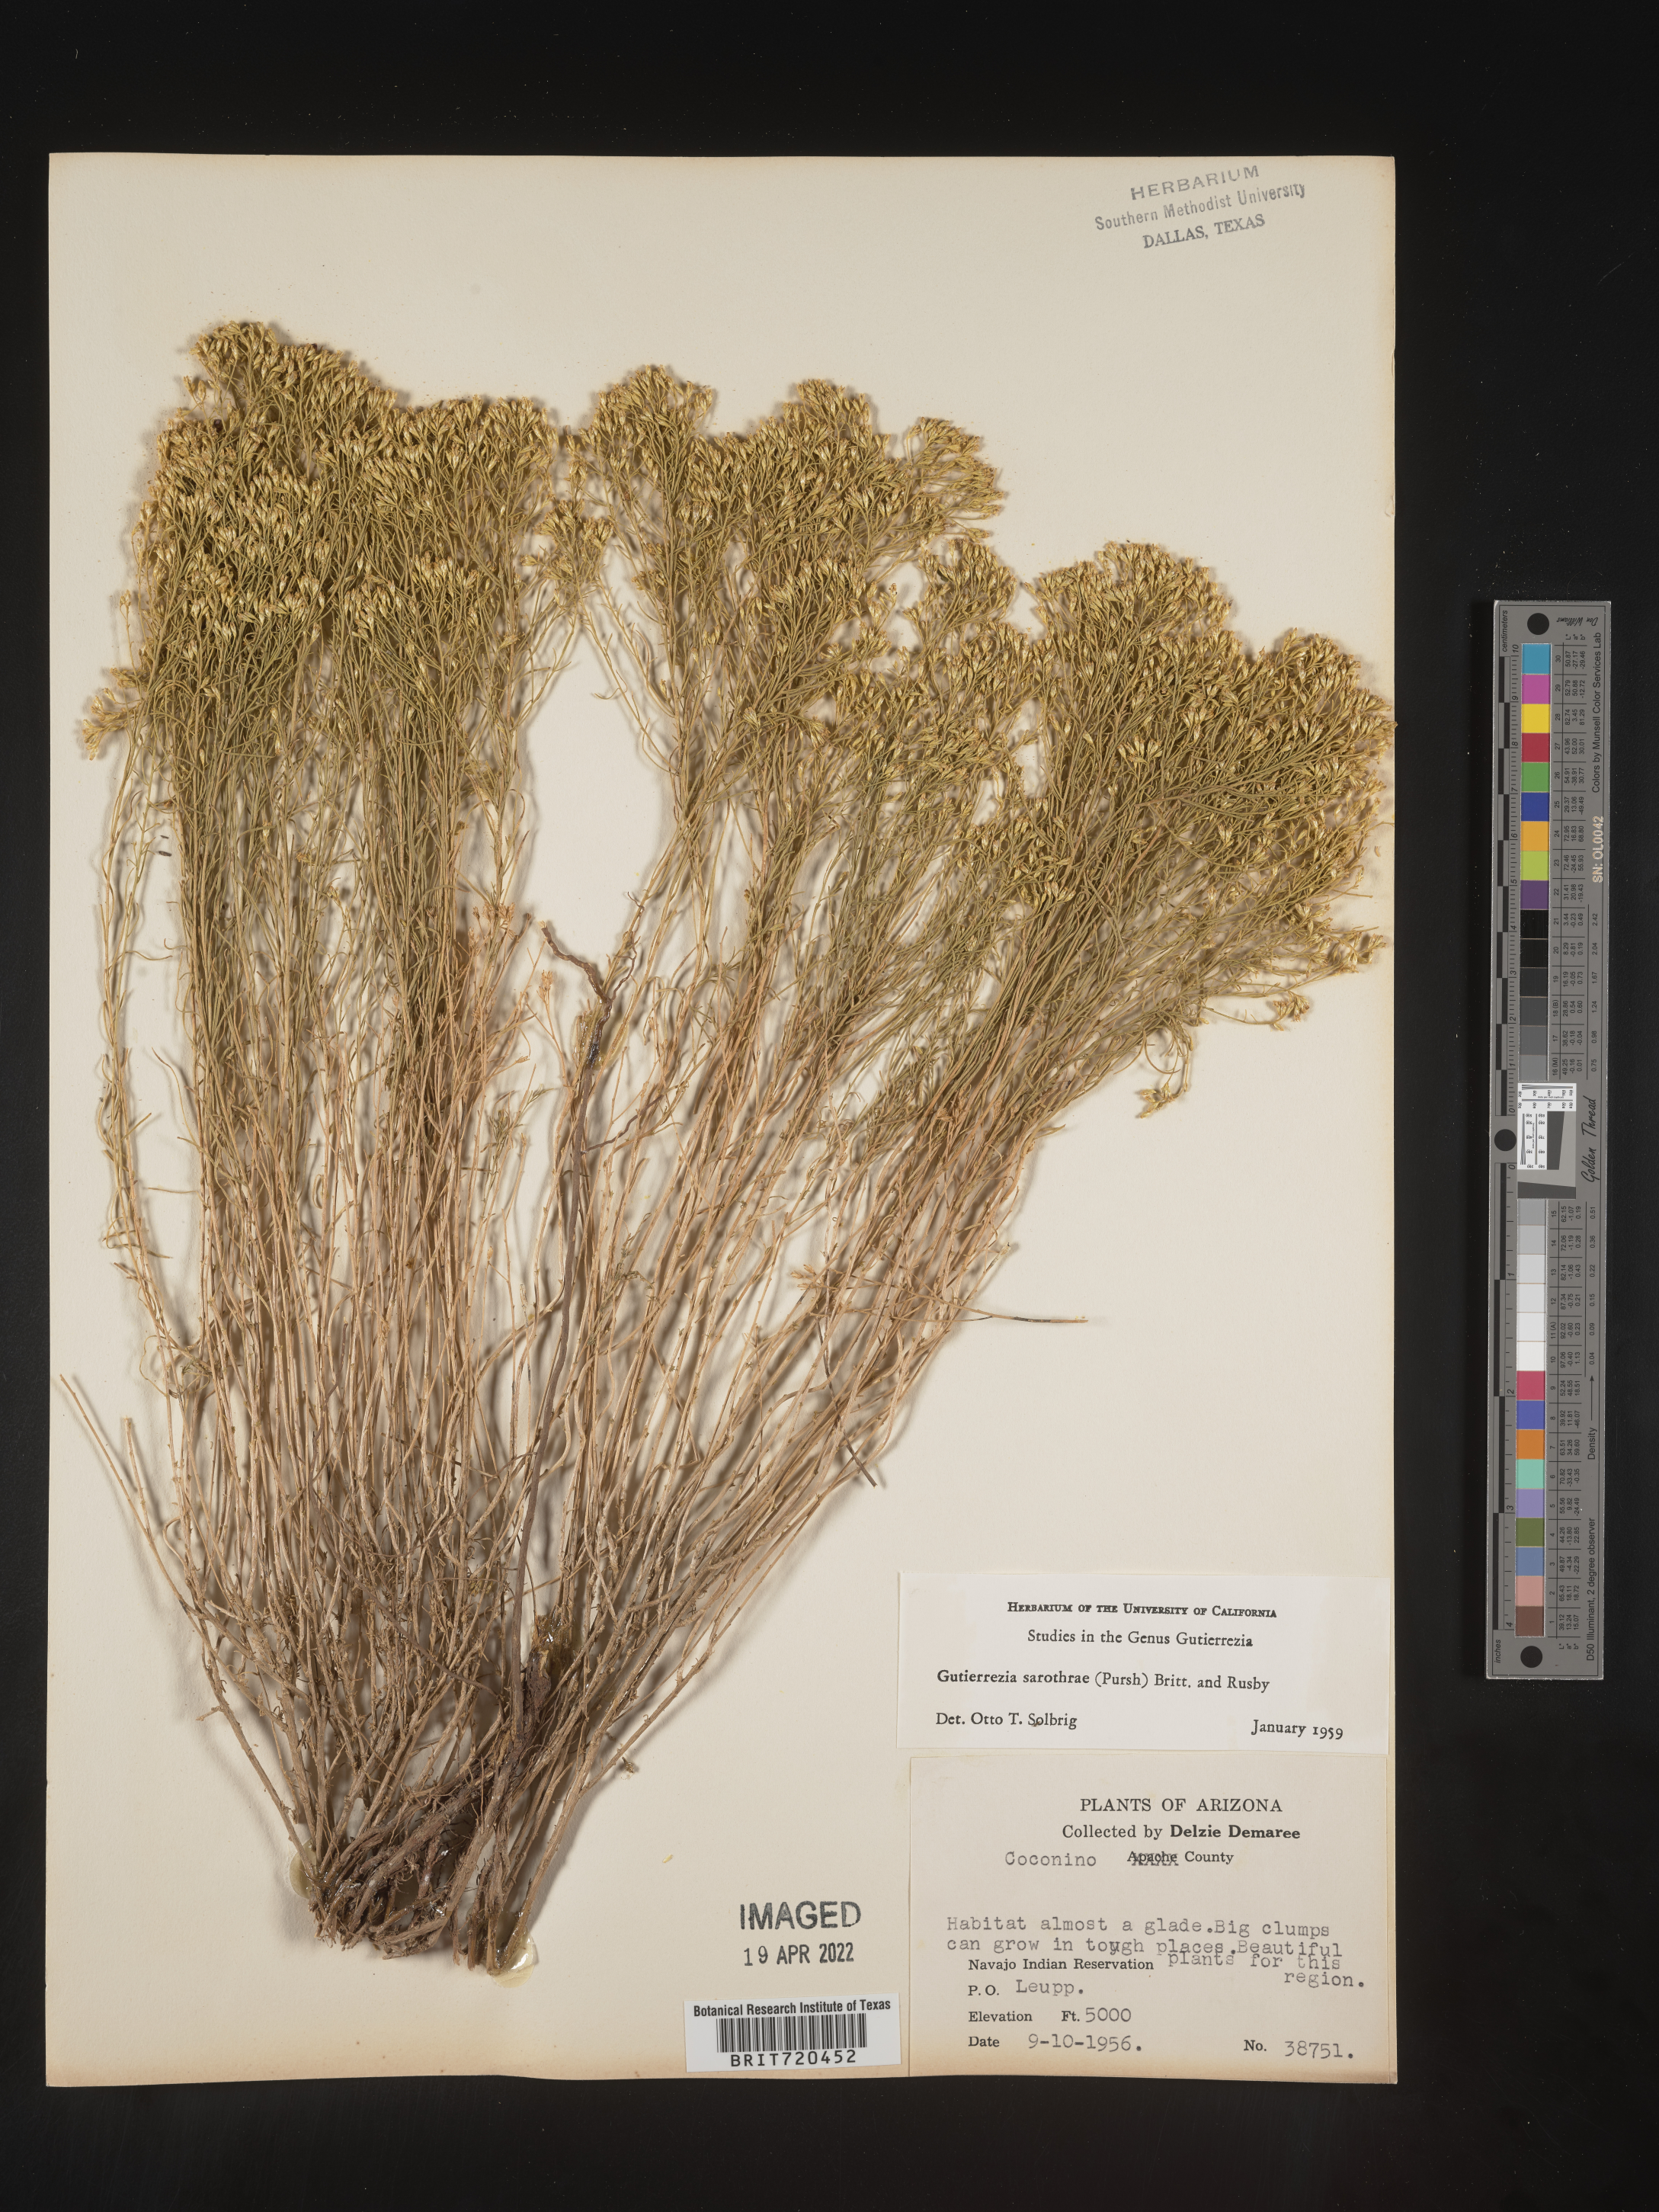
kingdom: Plantae
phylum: Tracheophyta
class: Magnoliopsida
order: Asterales
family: Asteraceae
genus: Gutierrezia
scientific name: Gutierrezia sarothrae
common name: Broom snakeweed
